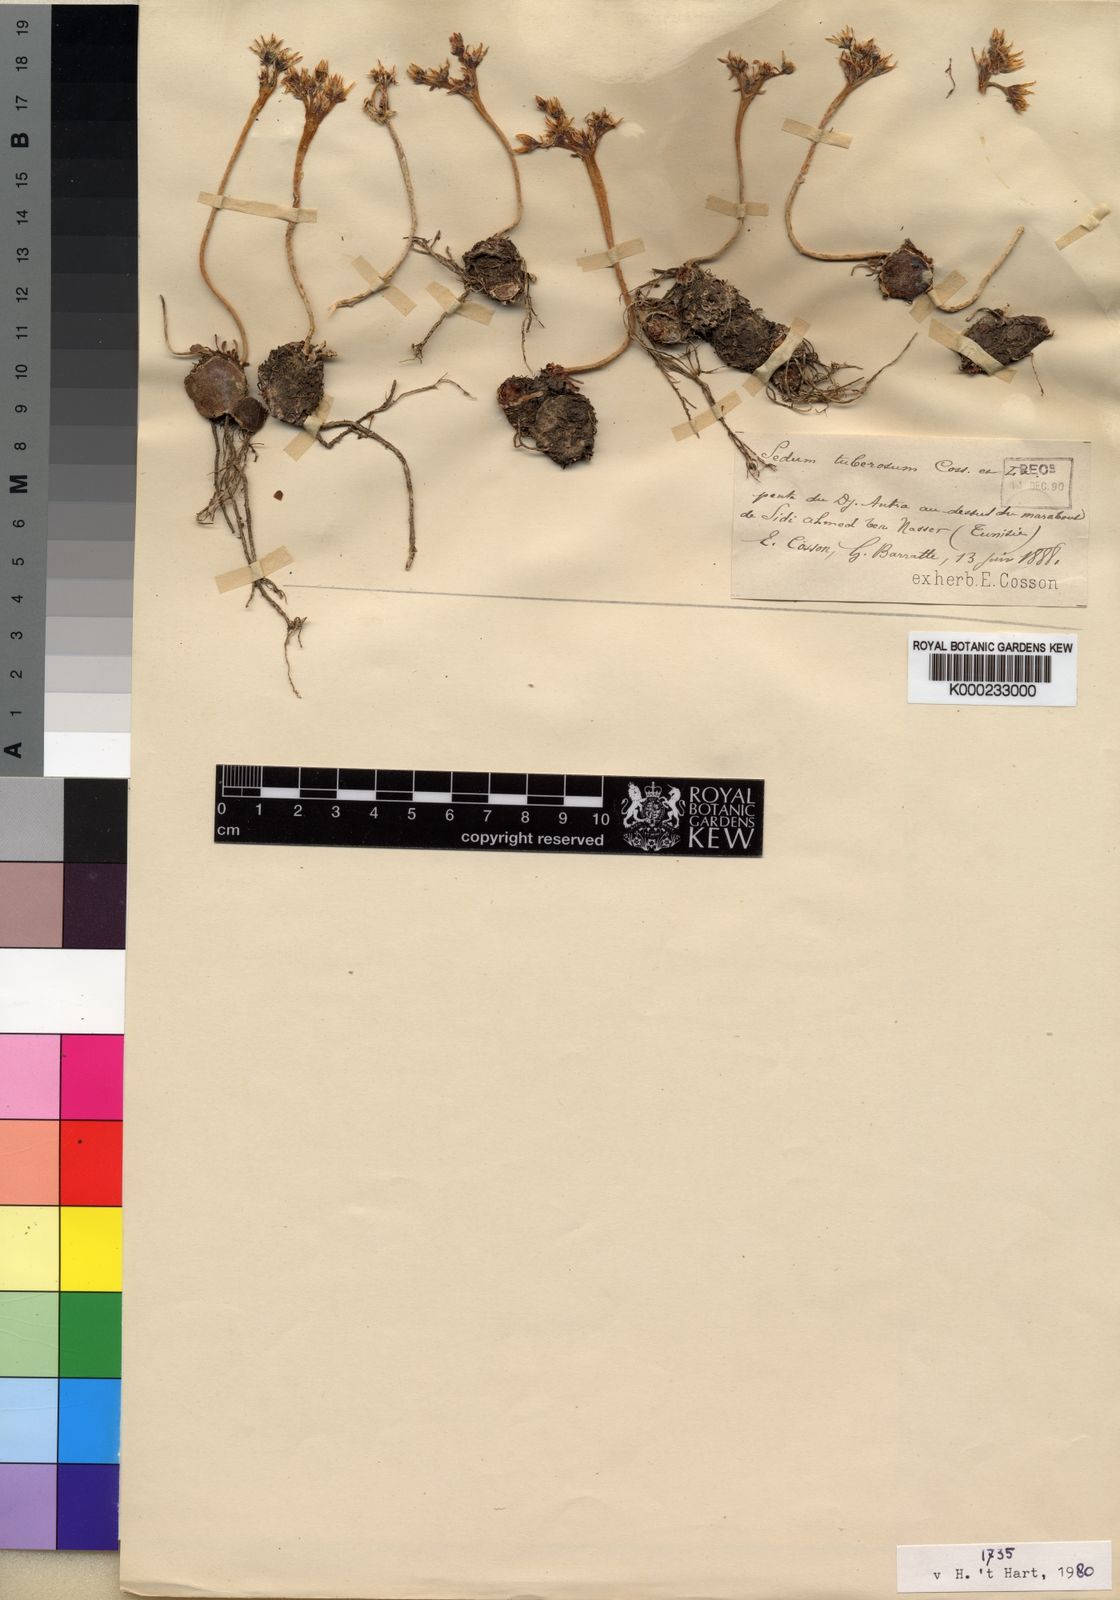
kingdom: Plantae
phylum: Tracheophyta
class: Magnoliopsida
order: Saxifragales
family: Crassulaceae
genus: Sedum
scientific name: Sedum tuberosum
